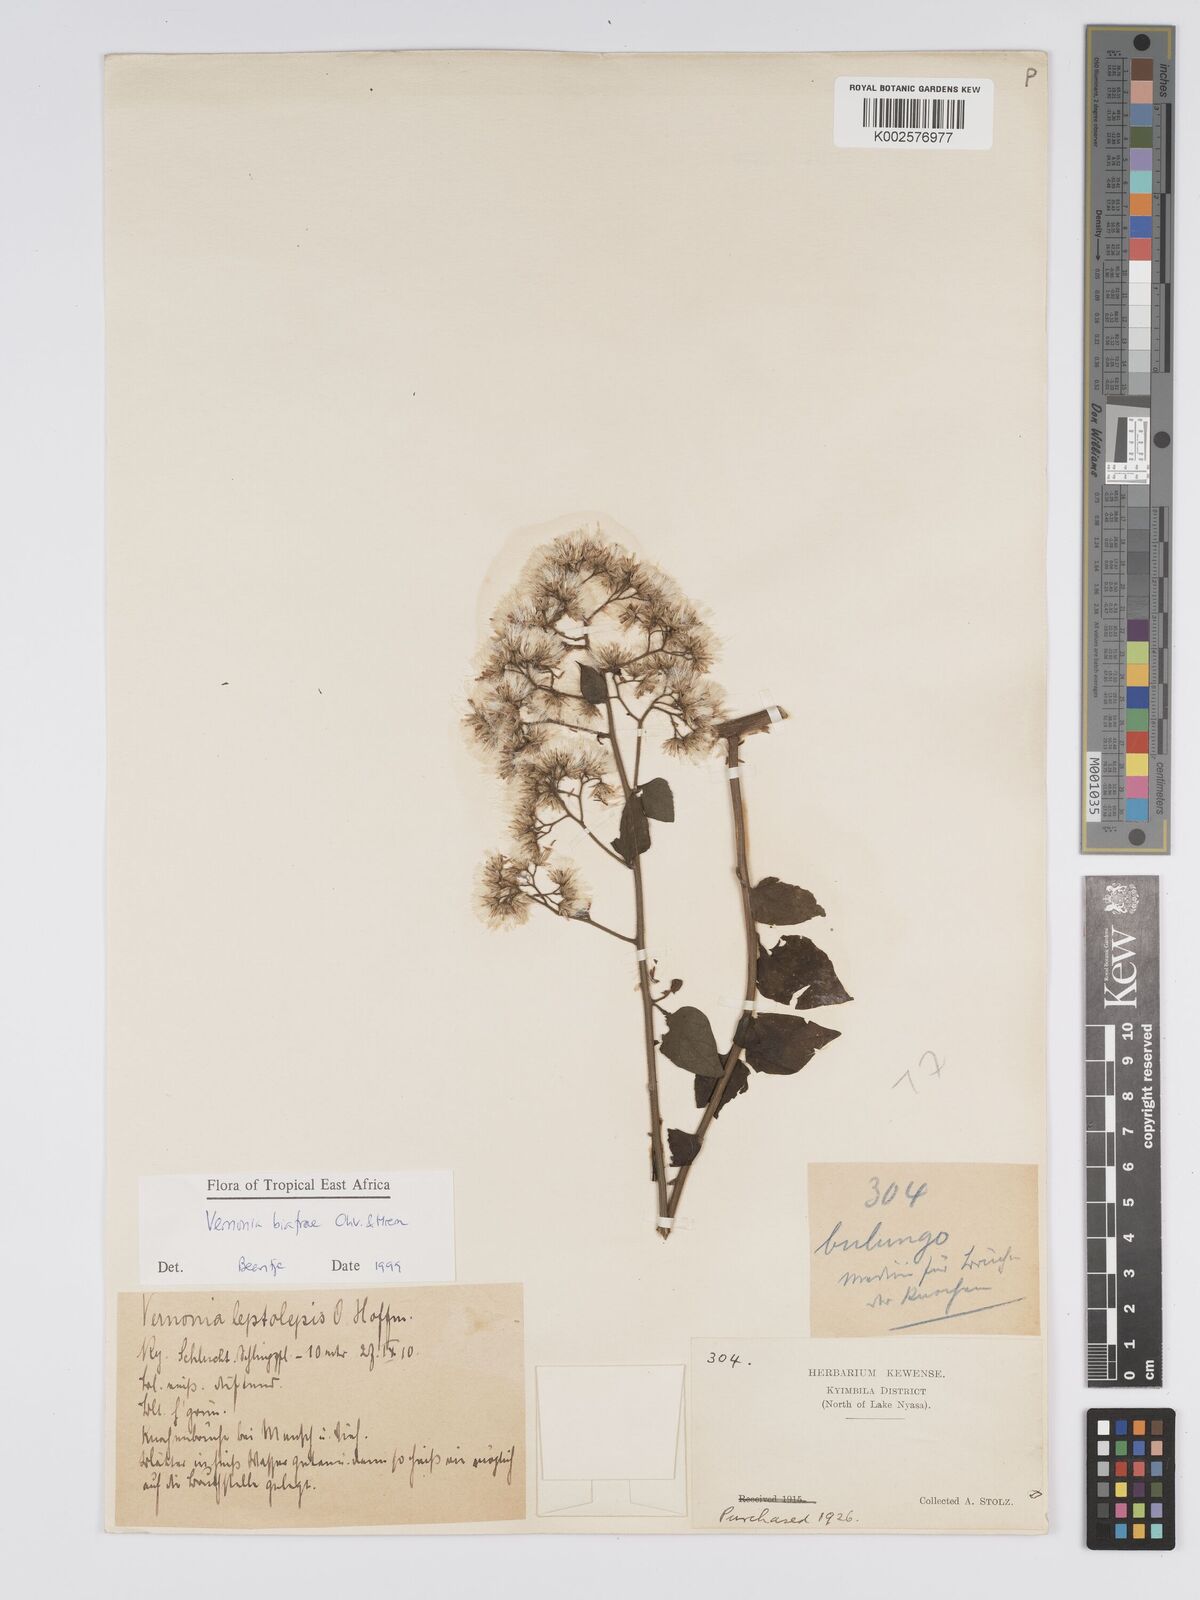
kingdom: Plantae
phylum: Tracheophyta
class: Magnoliopsida
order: Asterales
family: Asteraceae
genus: Distephanus
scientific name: Distephanus biafrae
